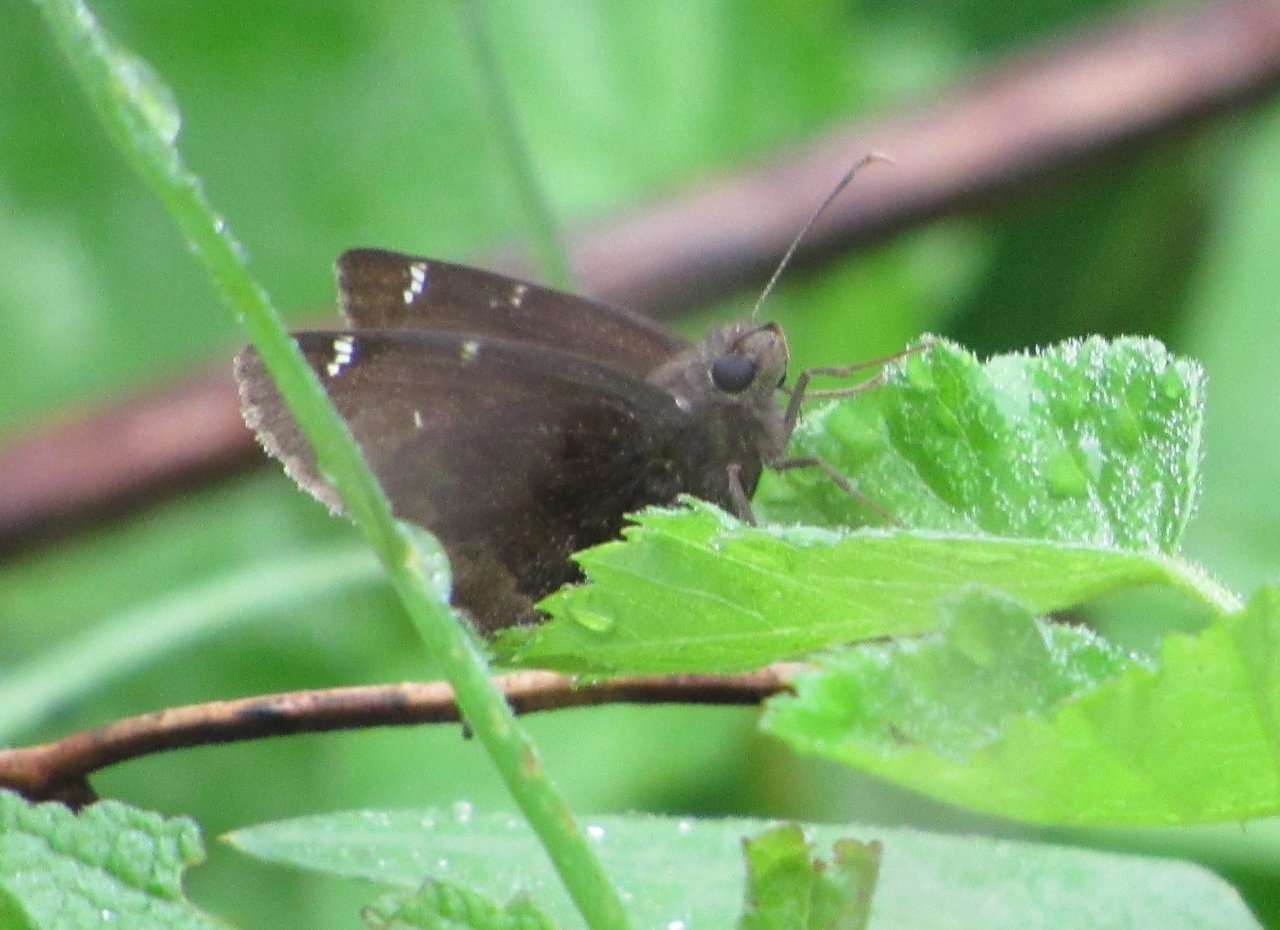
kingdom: Animalia
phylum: Arthropoda
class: Insecta
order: Lepidoptera
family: Hesperiidae
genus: Autochton
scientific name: Autochton
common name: Northern Cloudywing
